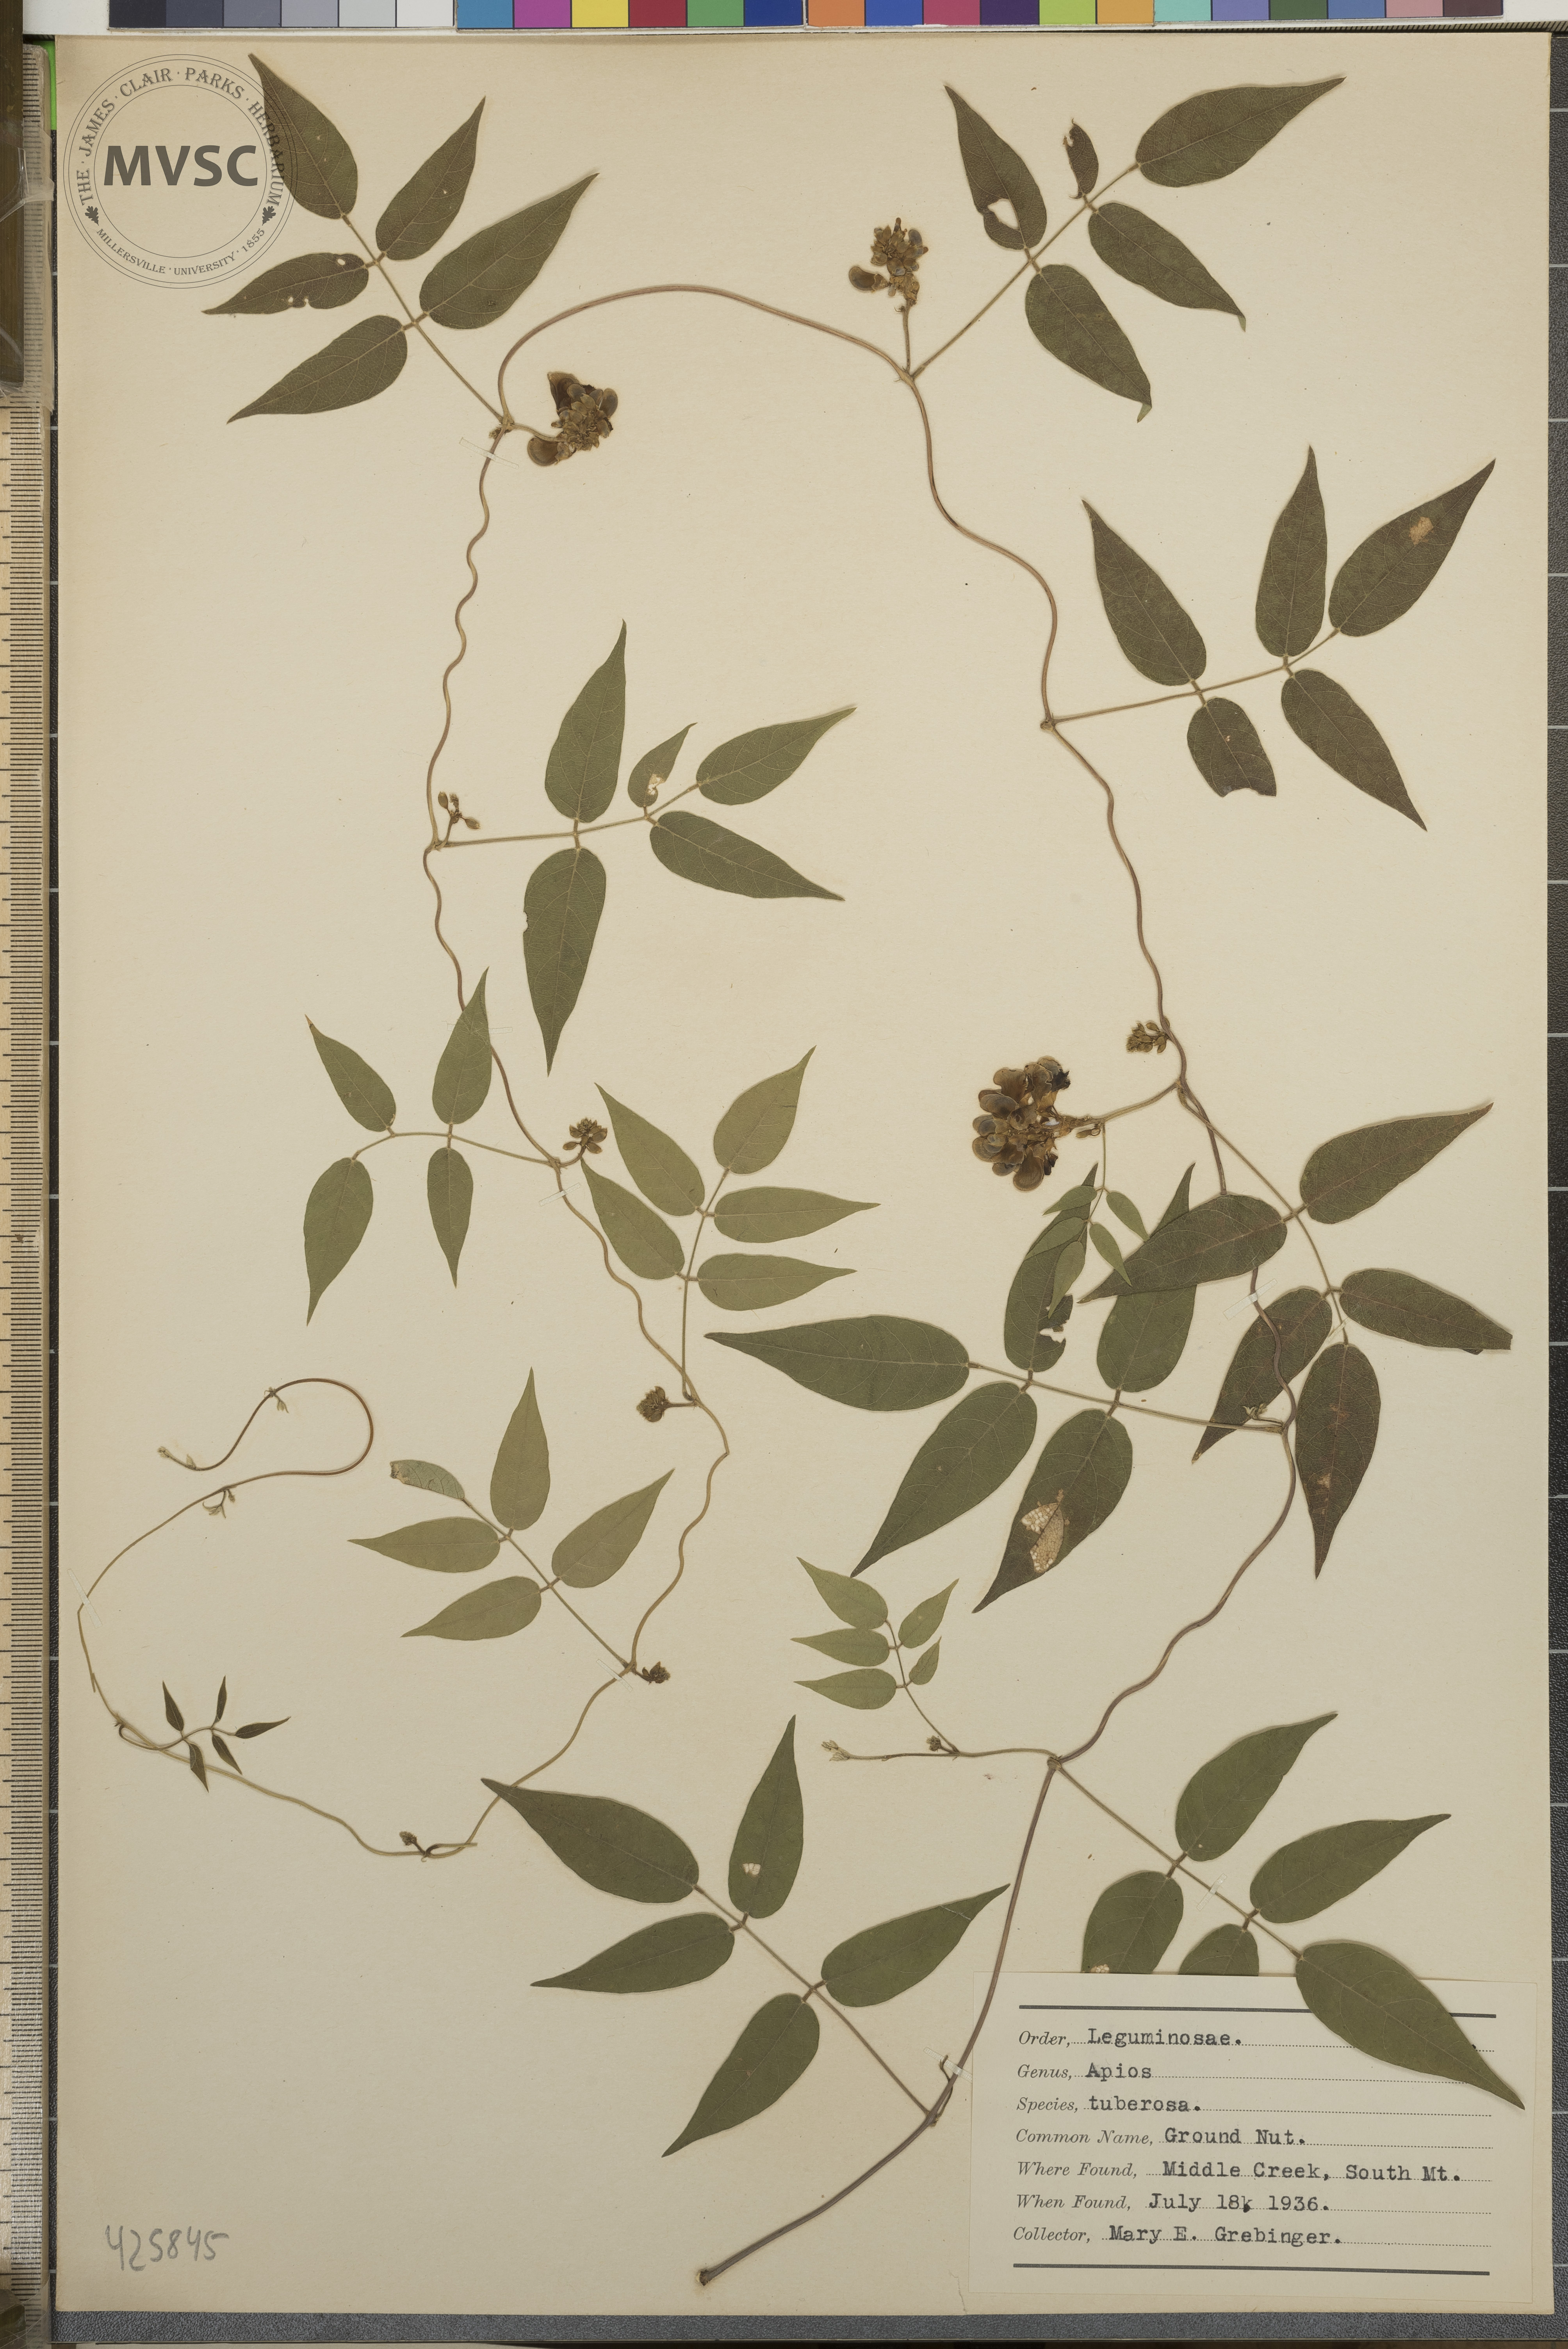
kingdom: Plantae
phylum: Tracheophyta
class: Magnoliopsida
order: Fabales
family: Fabaceae
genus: Apios
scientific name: Apios americana
